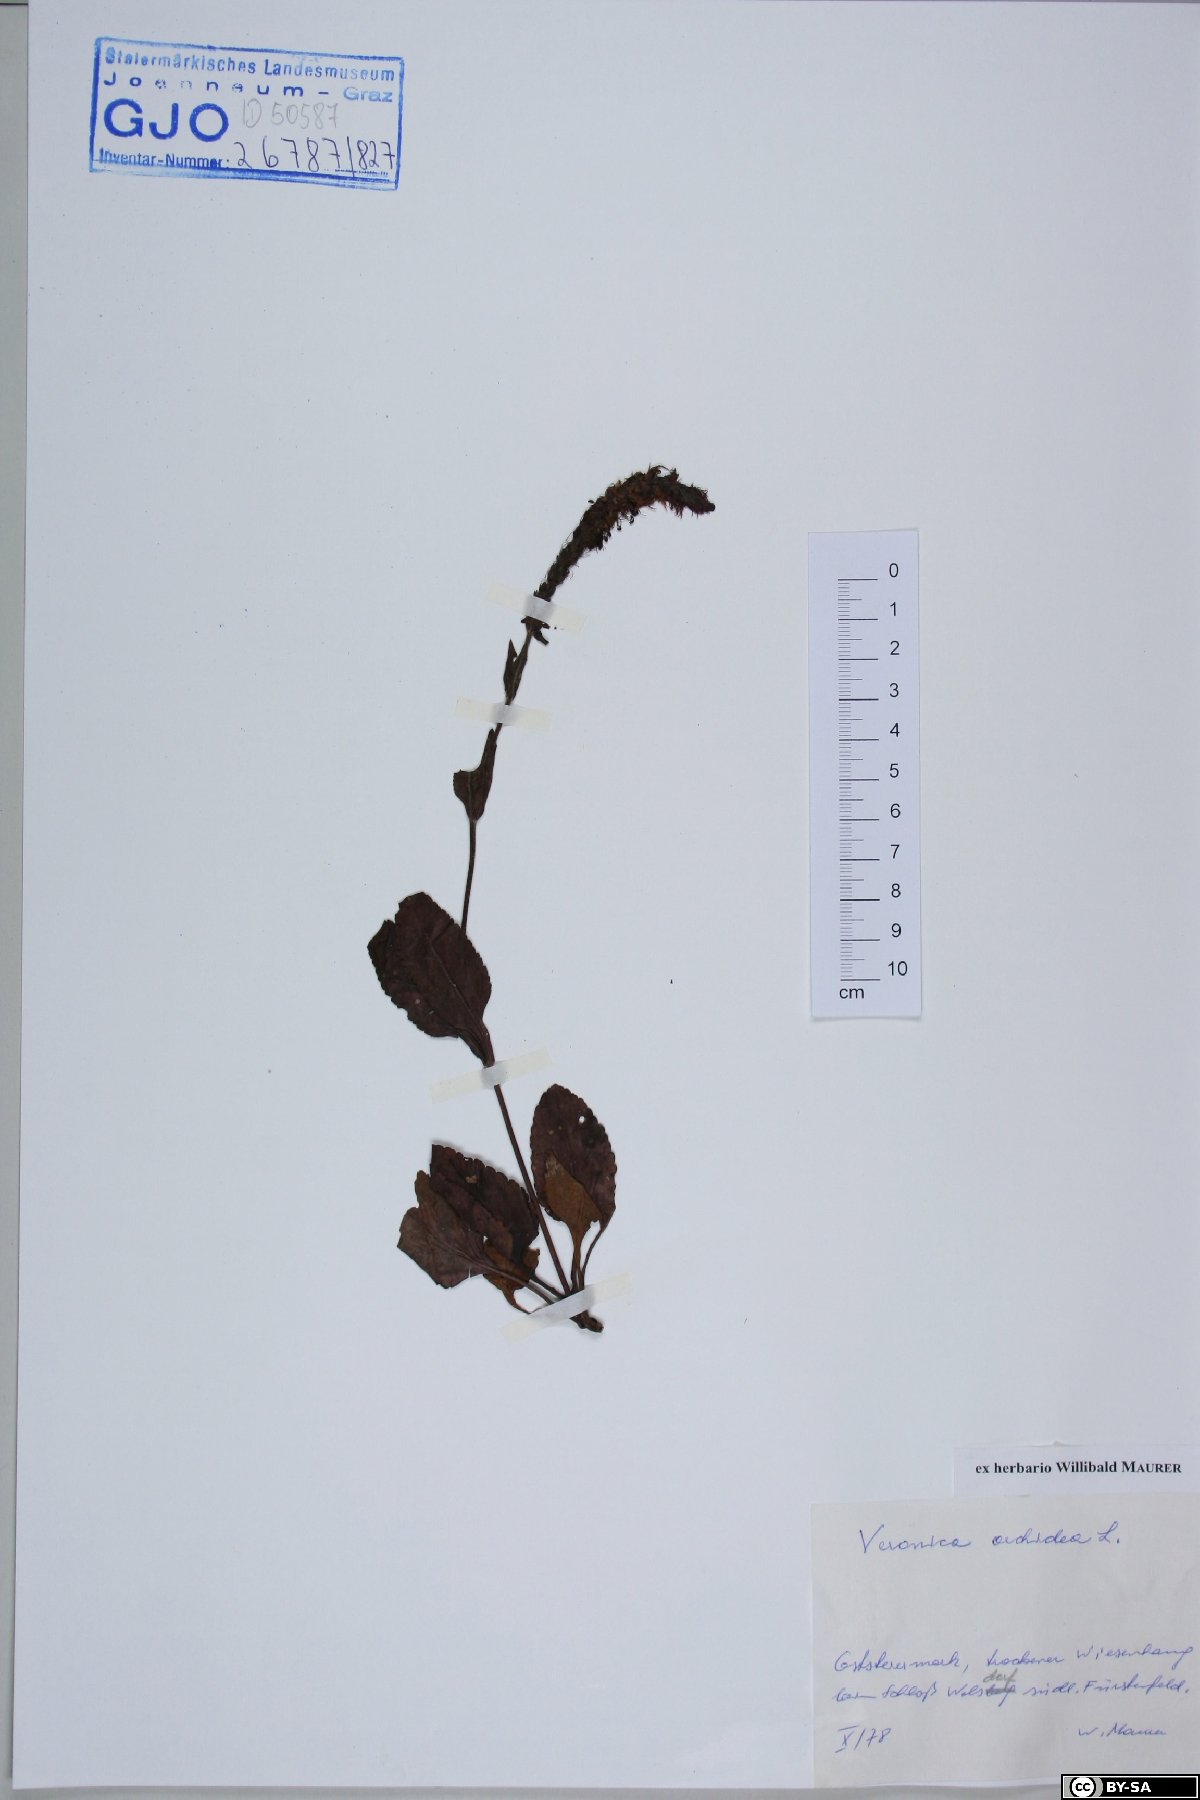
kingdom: Plantae
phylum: Tracheophyta
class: Magnoliopsida
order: Lamiales
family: Plantaginaceae
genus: Veronica
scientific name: Veronica orchidea
